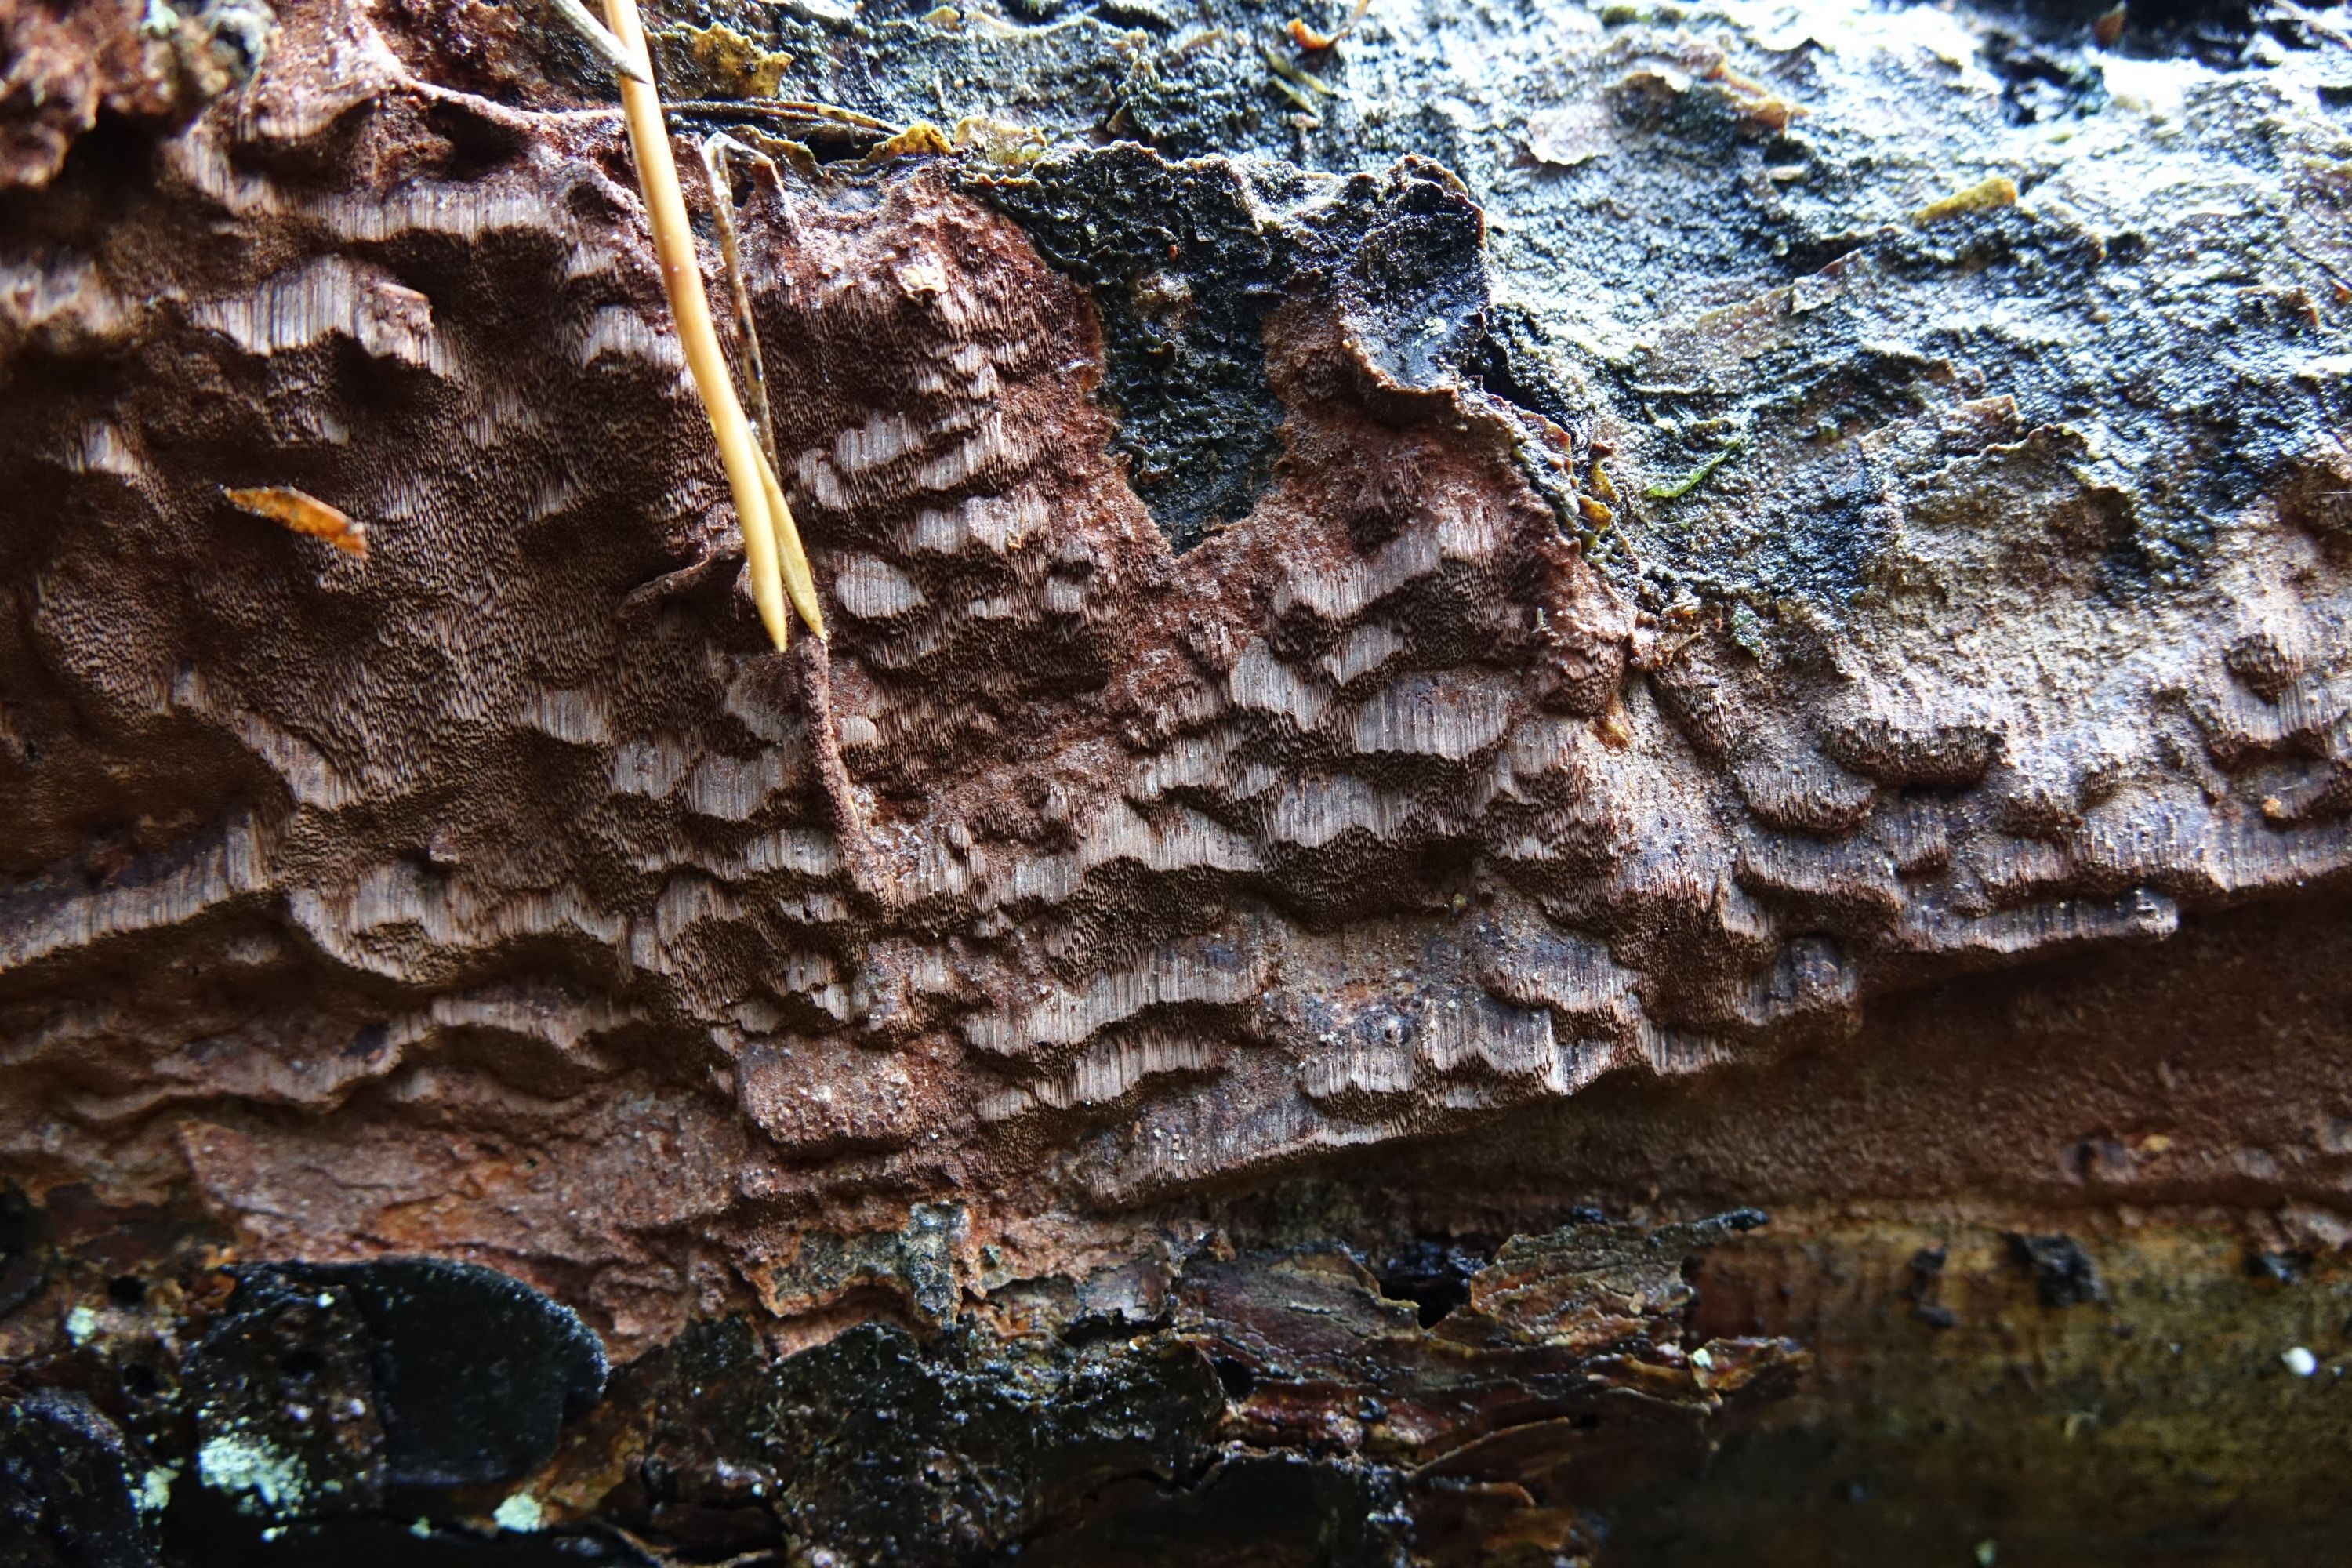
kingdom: Fungi
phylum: Basidiomycota
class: Agaricomycetes
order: Hymenochaetales
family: Hymenochaetaceae
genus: Phellinidium
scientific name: Phellinidium ferrugineofuscum
